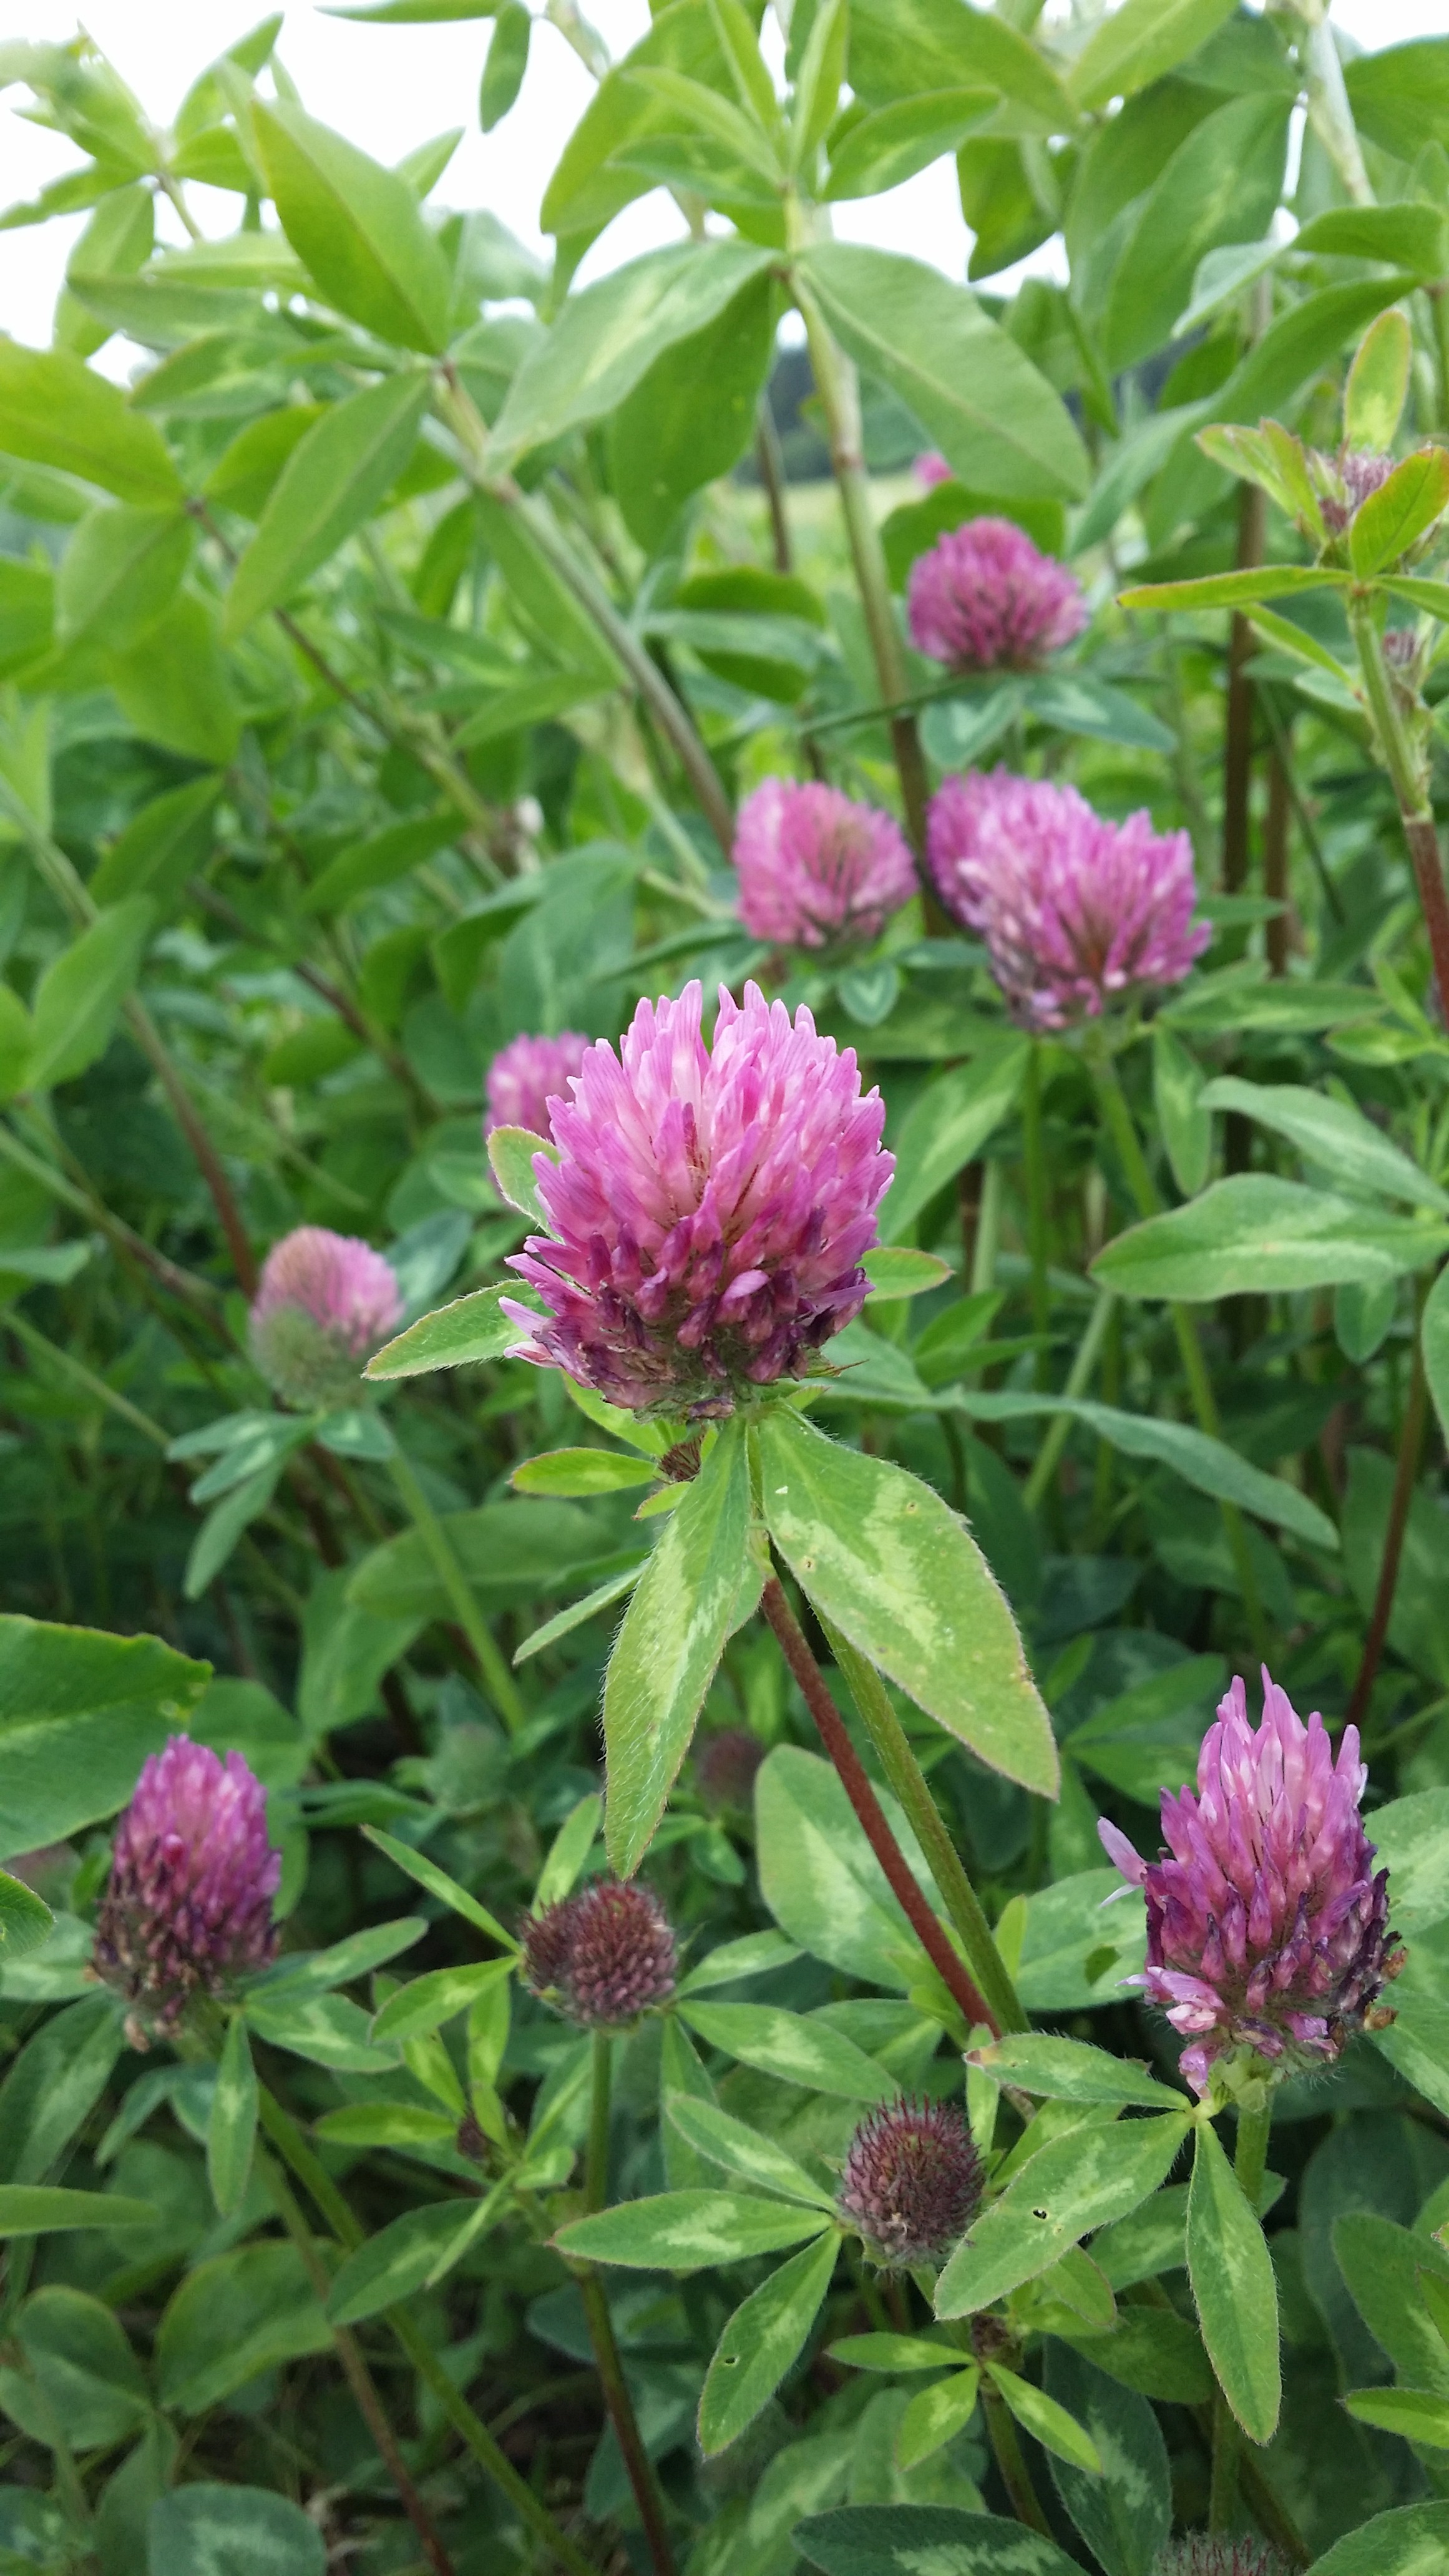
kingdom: Plantae
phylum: Tracheophyta
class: Magnoliopsida
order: Fabales
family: Fabaceae
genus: Trifolium
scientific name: Trifolium pratense
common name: Red clover
